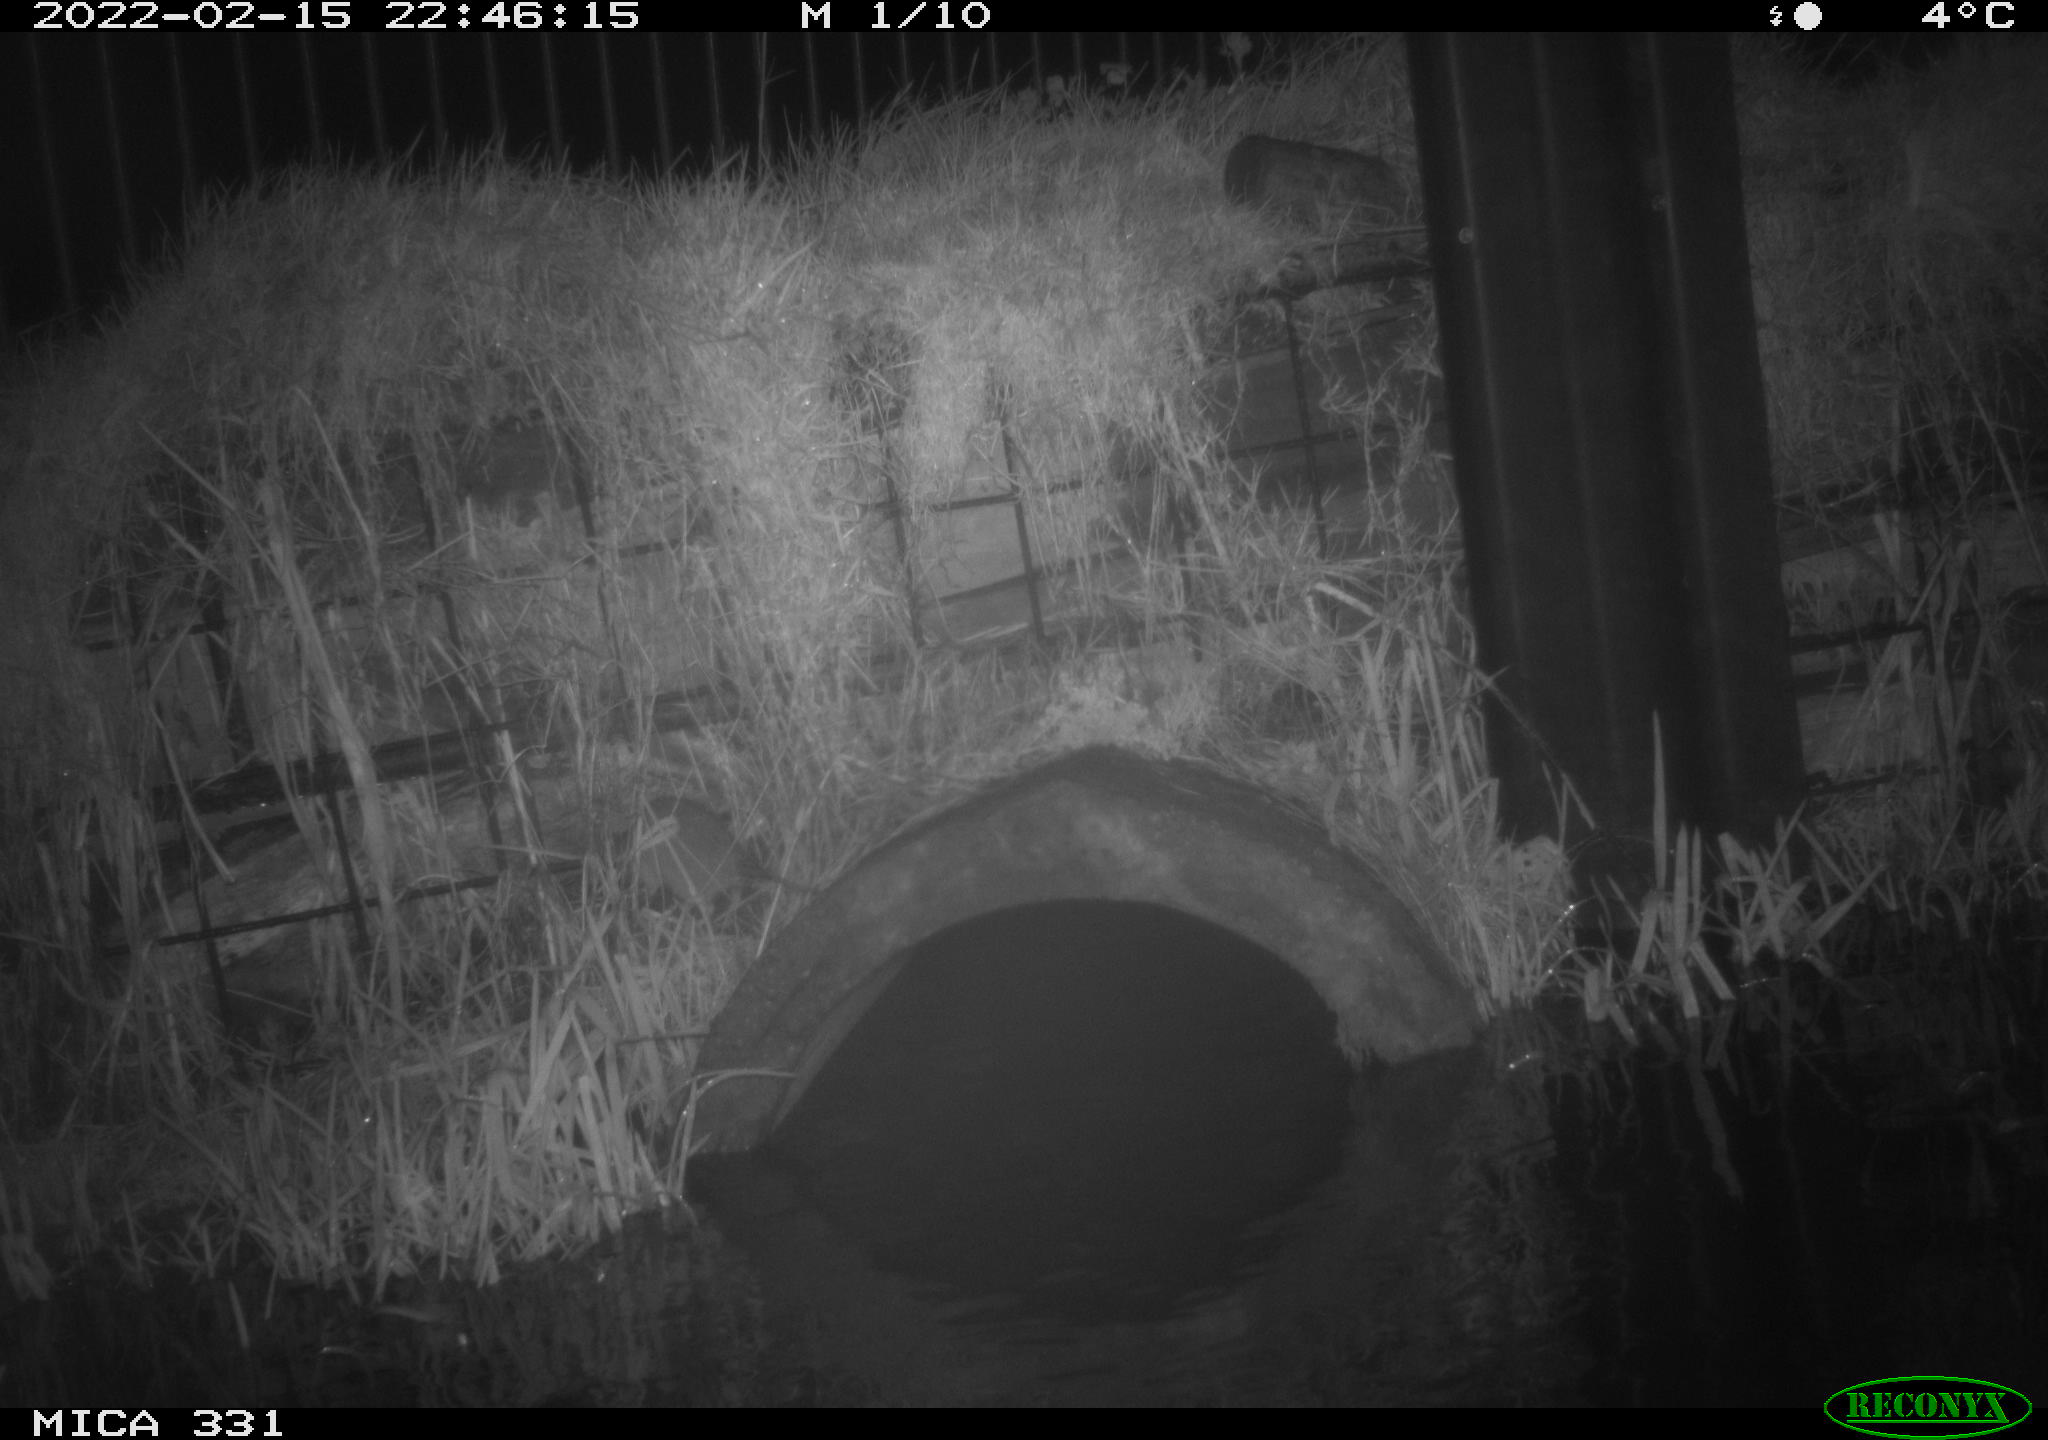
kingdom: Animalia
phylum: Chordata
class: Mammalia
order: Rodentia
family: Muridae
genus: Rattus
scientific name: Rattus norvegicus
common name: Brown rat
